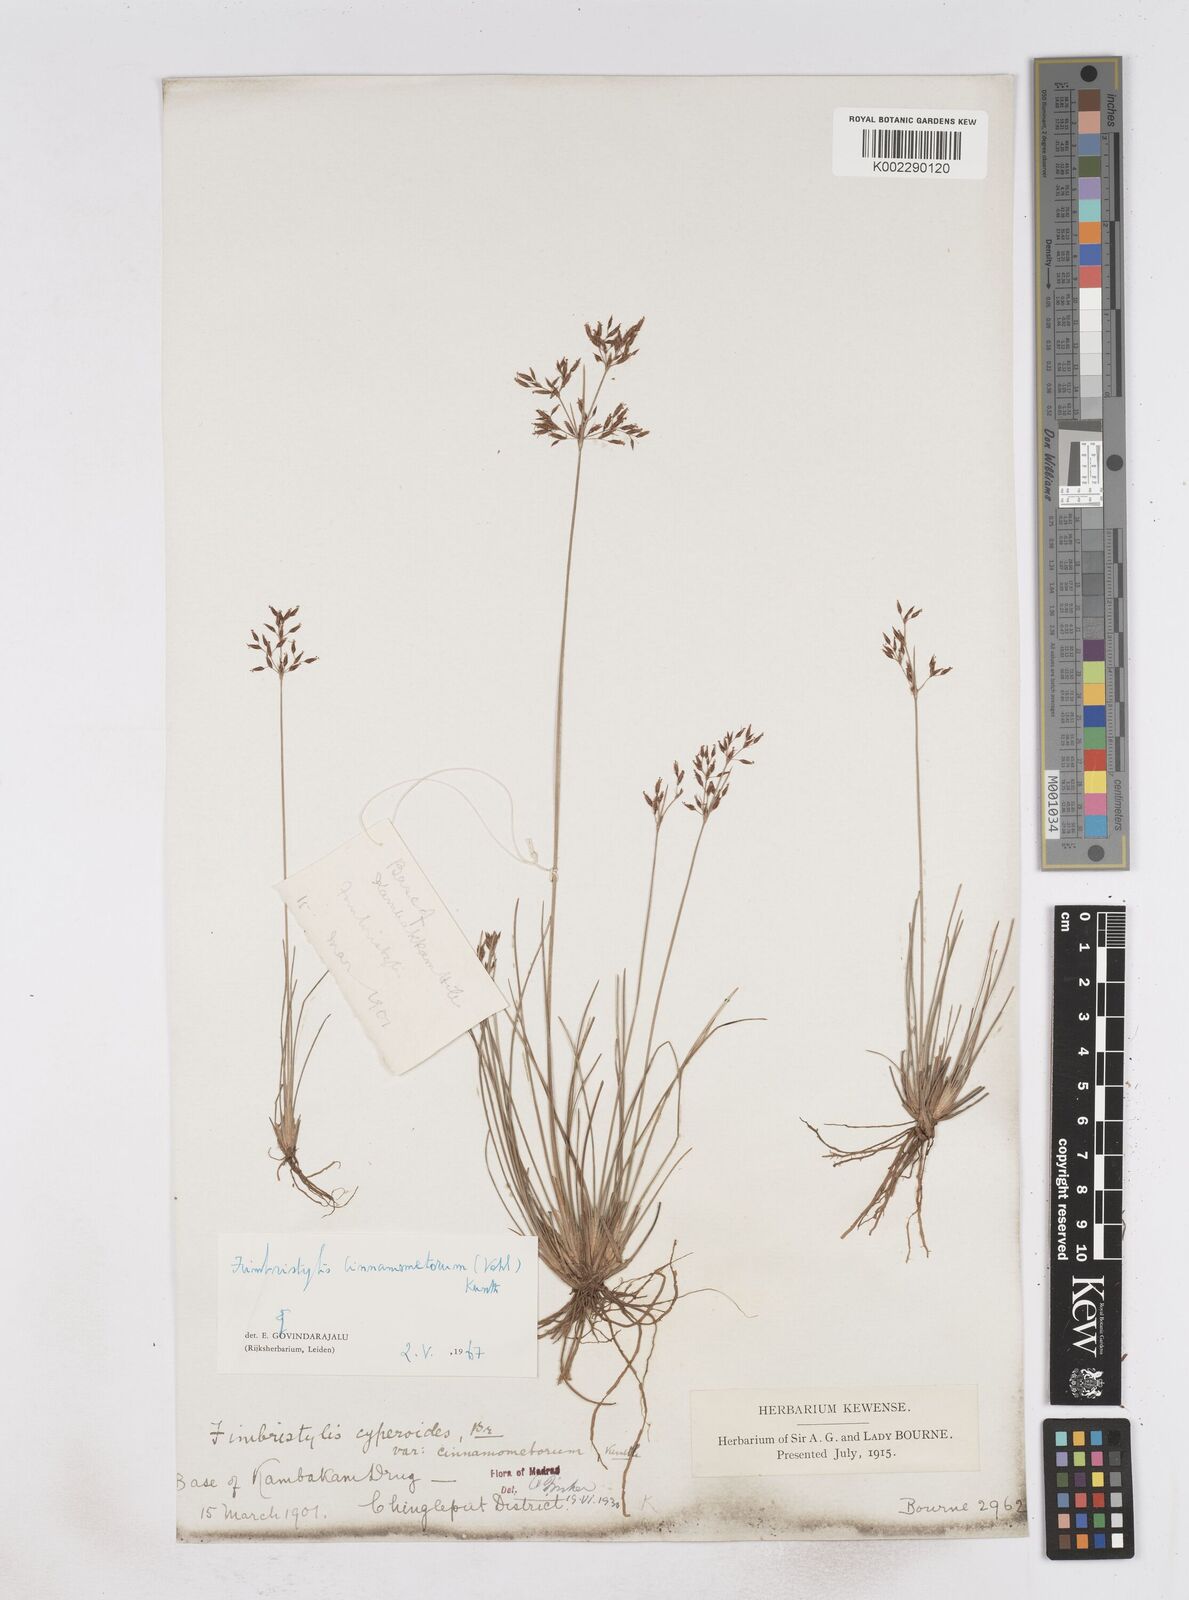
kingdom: Plantae
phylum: Tracheophyta
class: Liliopsida
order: Poales
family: Cyperaceae
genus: Fimbristylis
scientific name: Fimbristylis cinnamometorum
